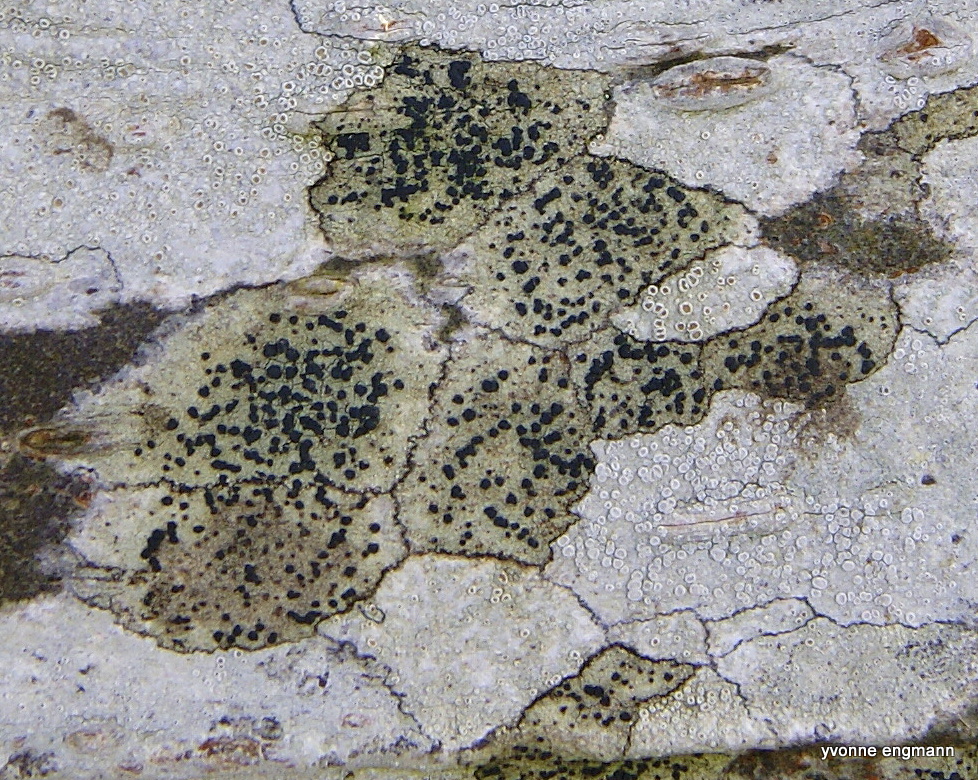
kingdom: Fungi
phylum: Ascomycota
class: Lecanoromycetes
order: Lecanorales
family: Lecanoraceae
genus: Lecidella
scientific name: Lecidella elaeochroma
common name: grågrøn skivelav
